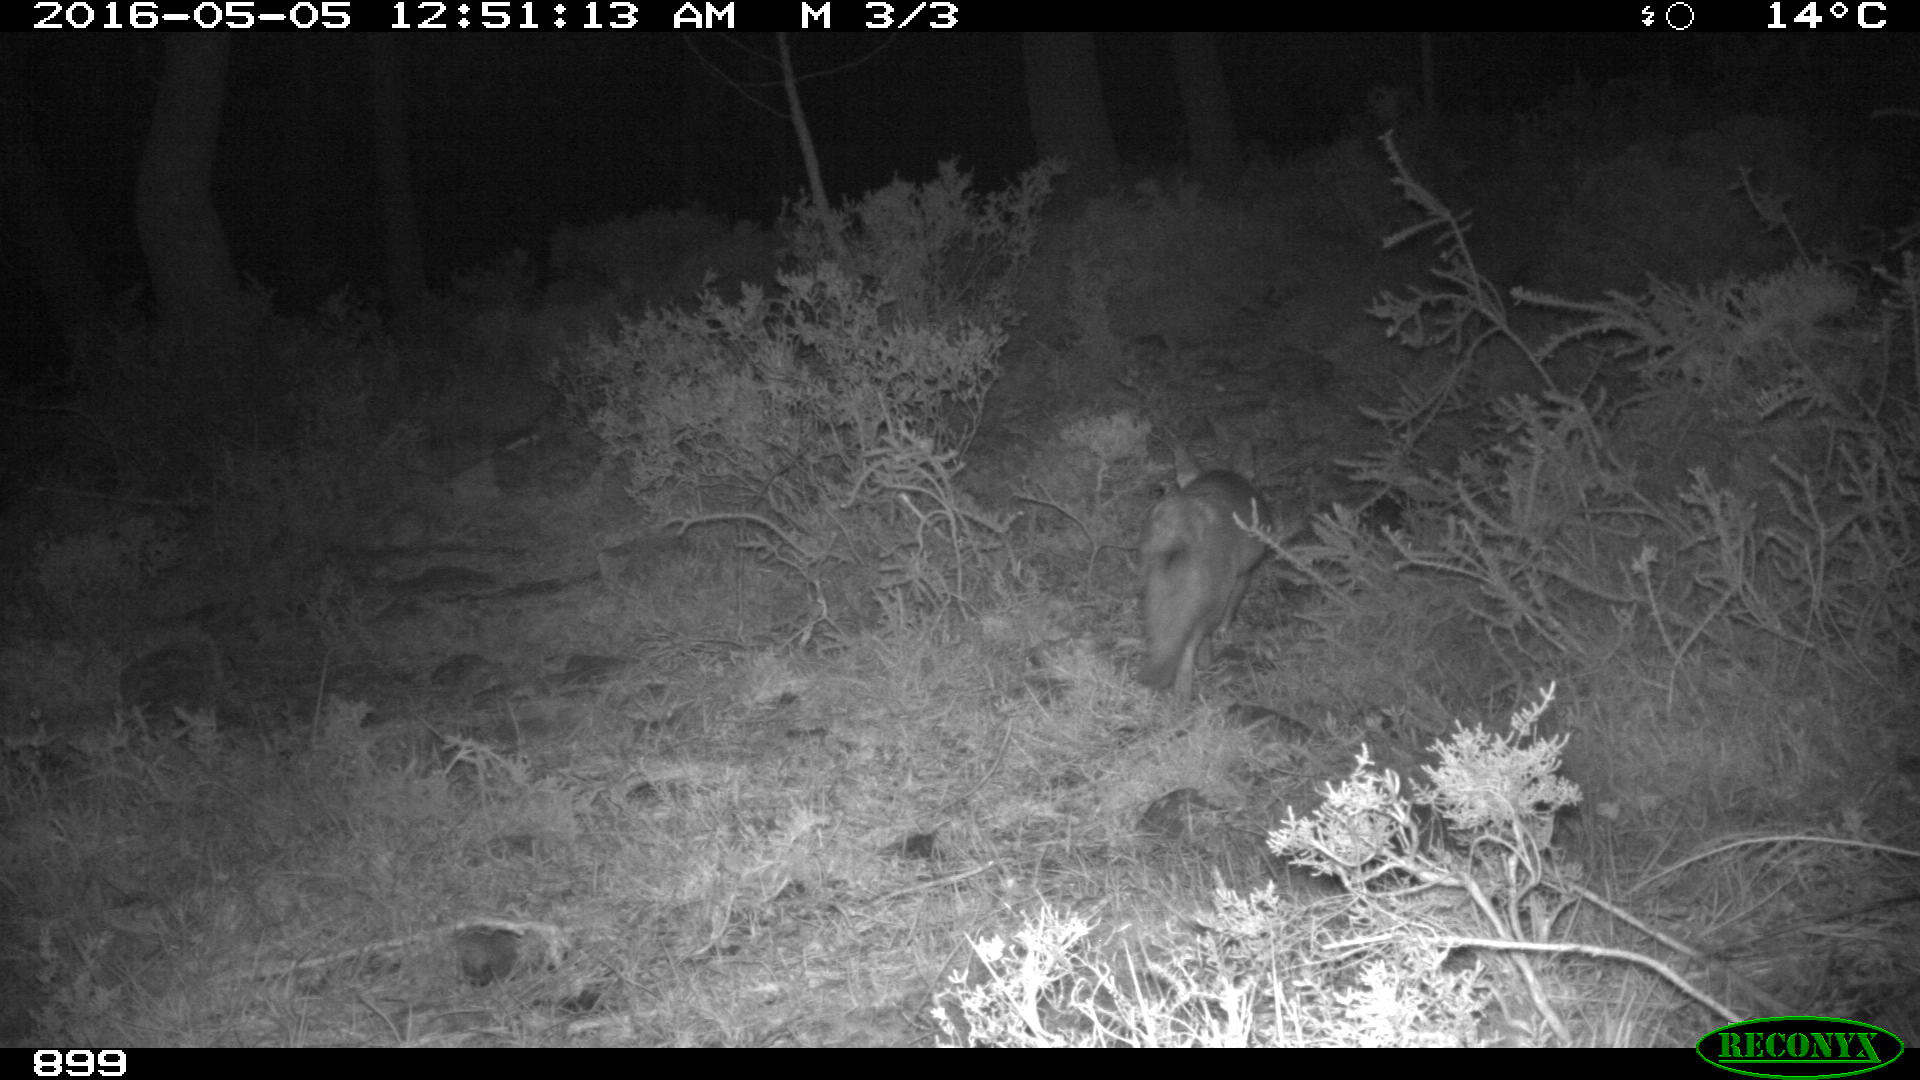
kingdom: Animalia
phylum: Chordata
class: Mammalia
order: Carnivora
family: Canidae
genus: Vulpes
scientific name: Vulpes vulpes
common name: Red fox
